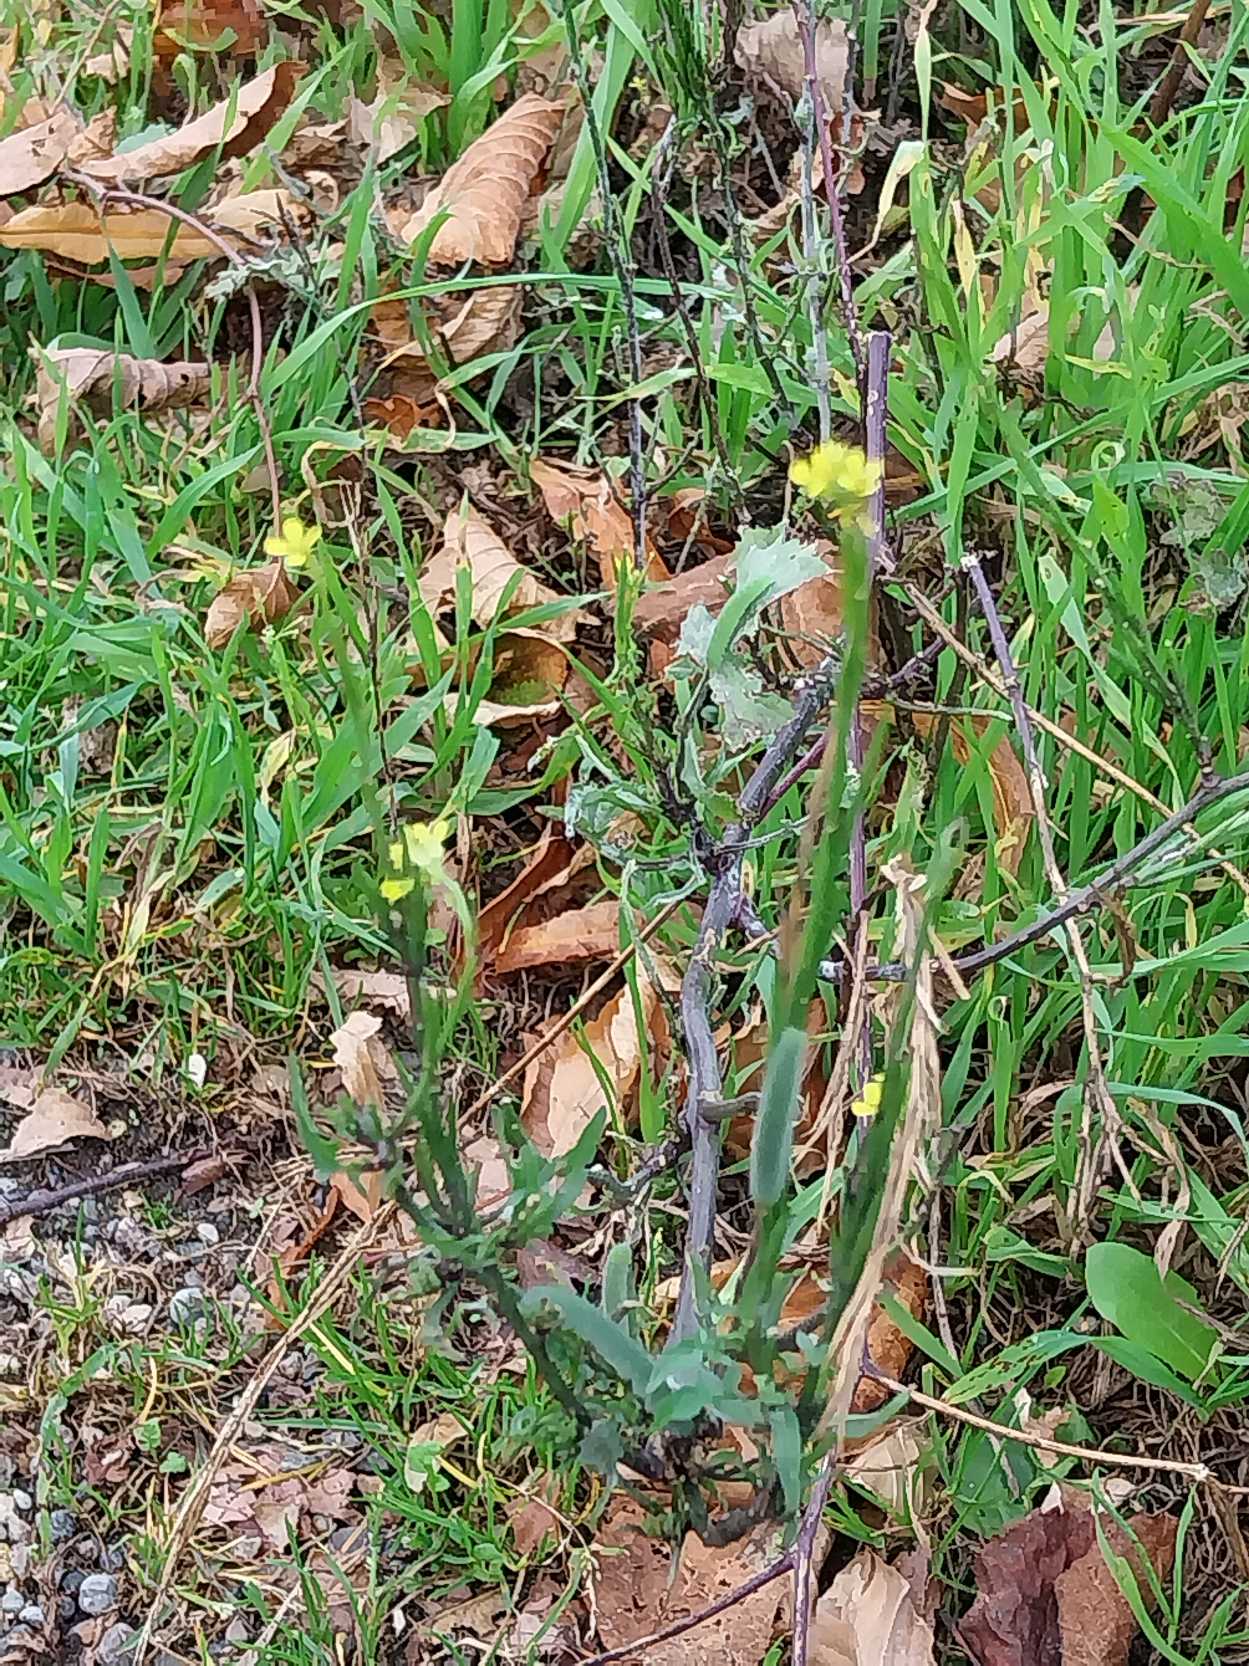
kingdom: Plantae
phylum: Tracheophyta
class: Magnoliopsida
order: Brassicales
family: Brassicaceae
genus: Sisymbrium
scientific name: Sisymbrium officinale
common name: Rank vejsennep
